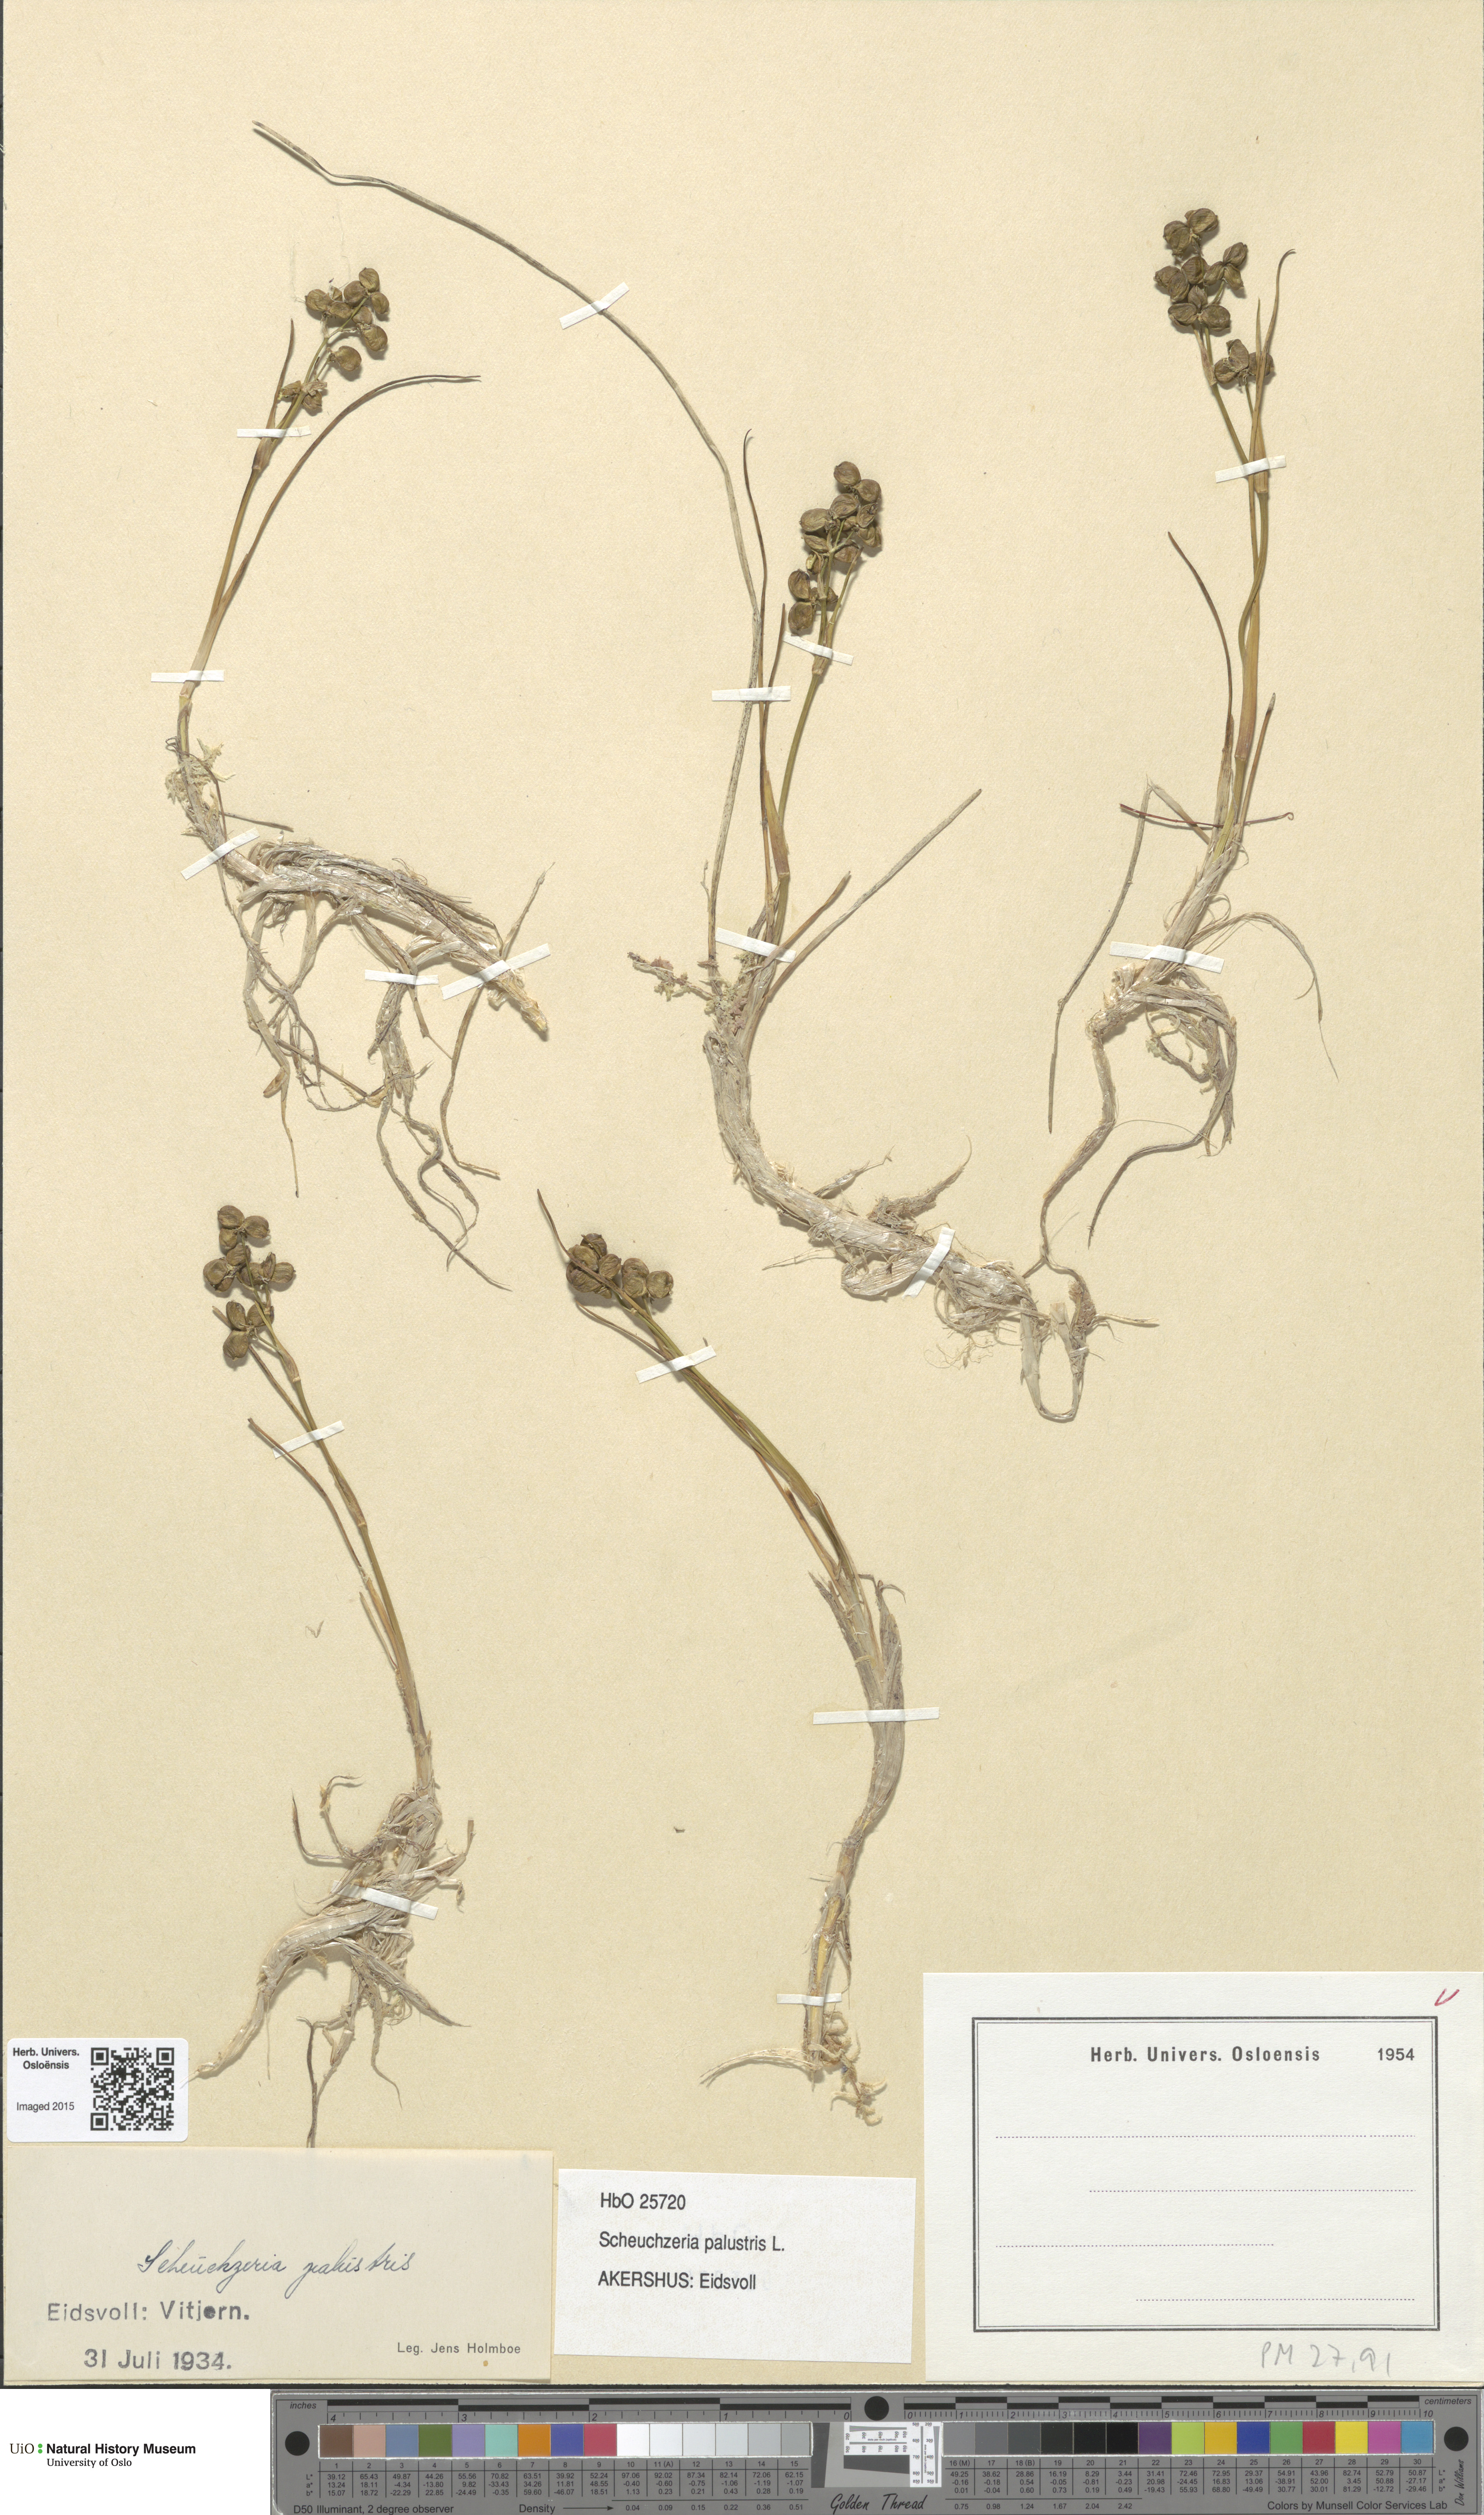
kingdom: Plantae
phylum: Tracheophyta
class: Liliopsida
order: Alismatales
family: Scheuchzeriaceae
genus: Scheuchzeria
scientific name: Scheuchzeria palustris
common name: Rannoch-rush
